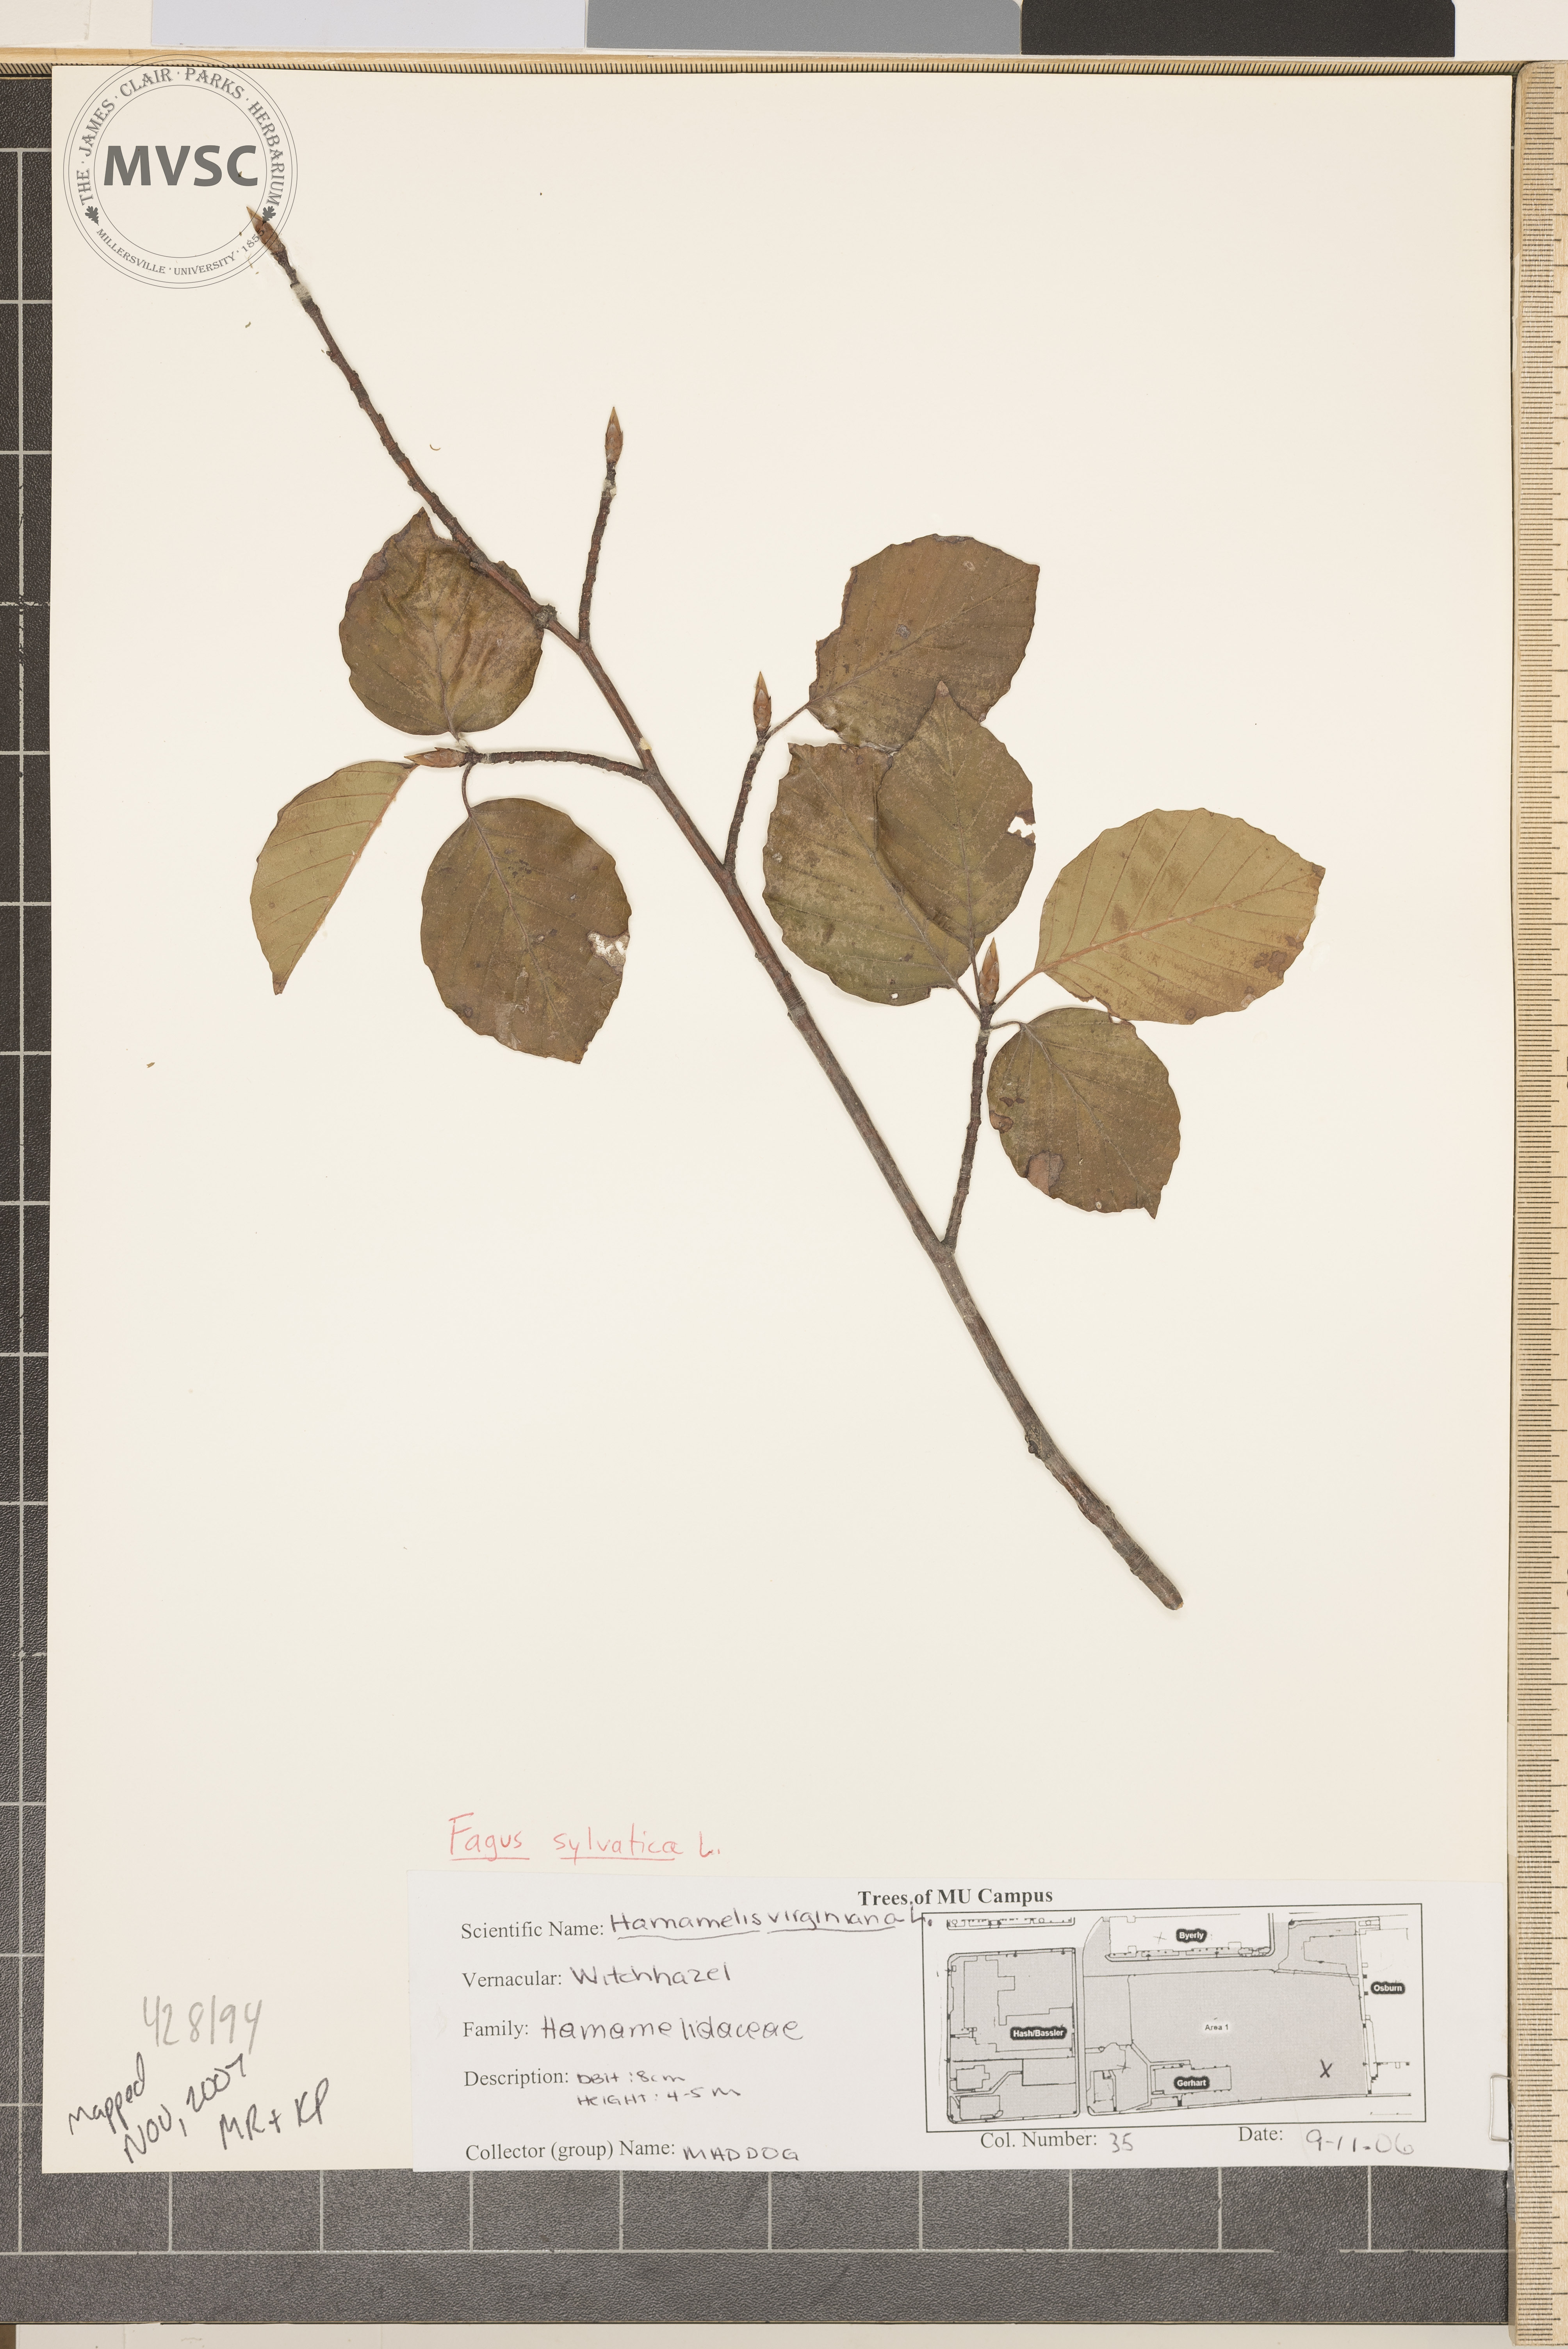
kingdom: Plantae
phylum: Tracheophyta
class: Magnoliopsida
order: Fagales
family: Fagaceae
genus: Fagus
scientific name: Fagus sylvatica
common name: European Beech
